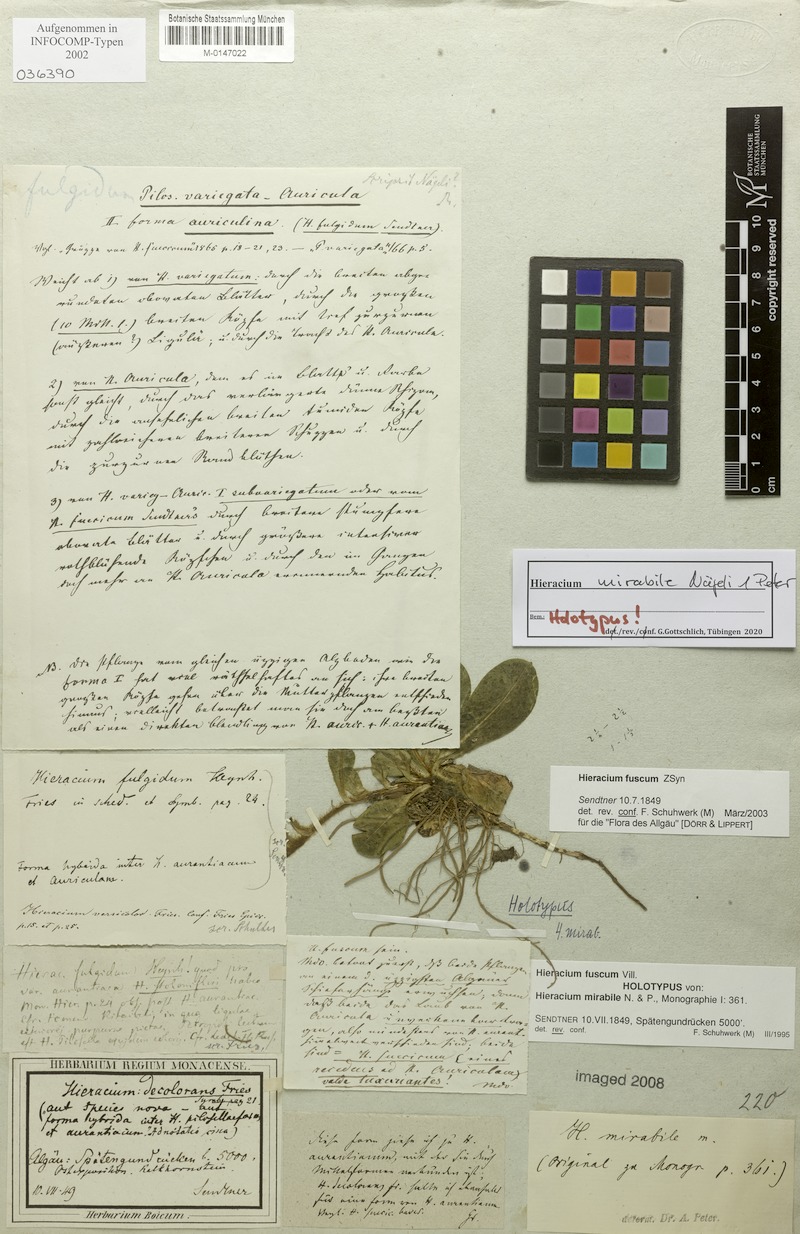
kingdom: Plantae
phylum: Tracheophyta
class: Magnoliopsida
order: Asterales
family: Asteraceae
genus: Pilosella
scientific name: Pilosella fusca
